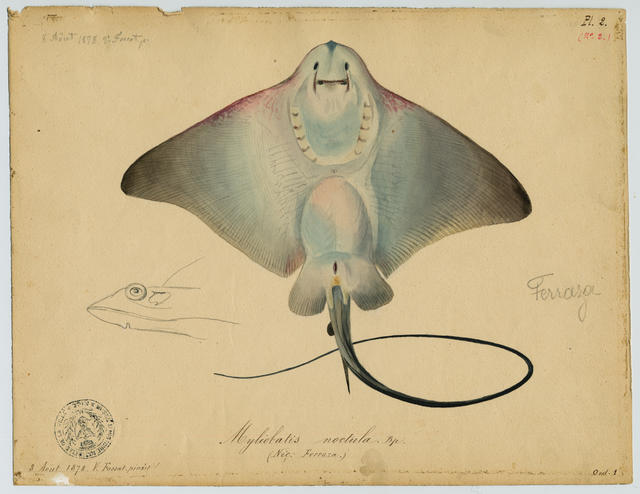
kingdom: Animalia
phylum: Chordata
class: Elasmobranchii
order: Myliobatiformes
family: Myliobatidae
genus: Myliobatis
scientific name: Myliobatis aquila
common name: Eagle ray
